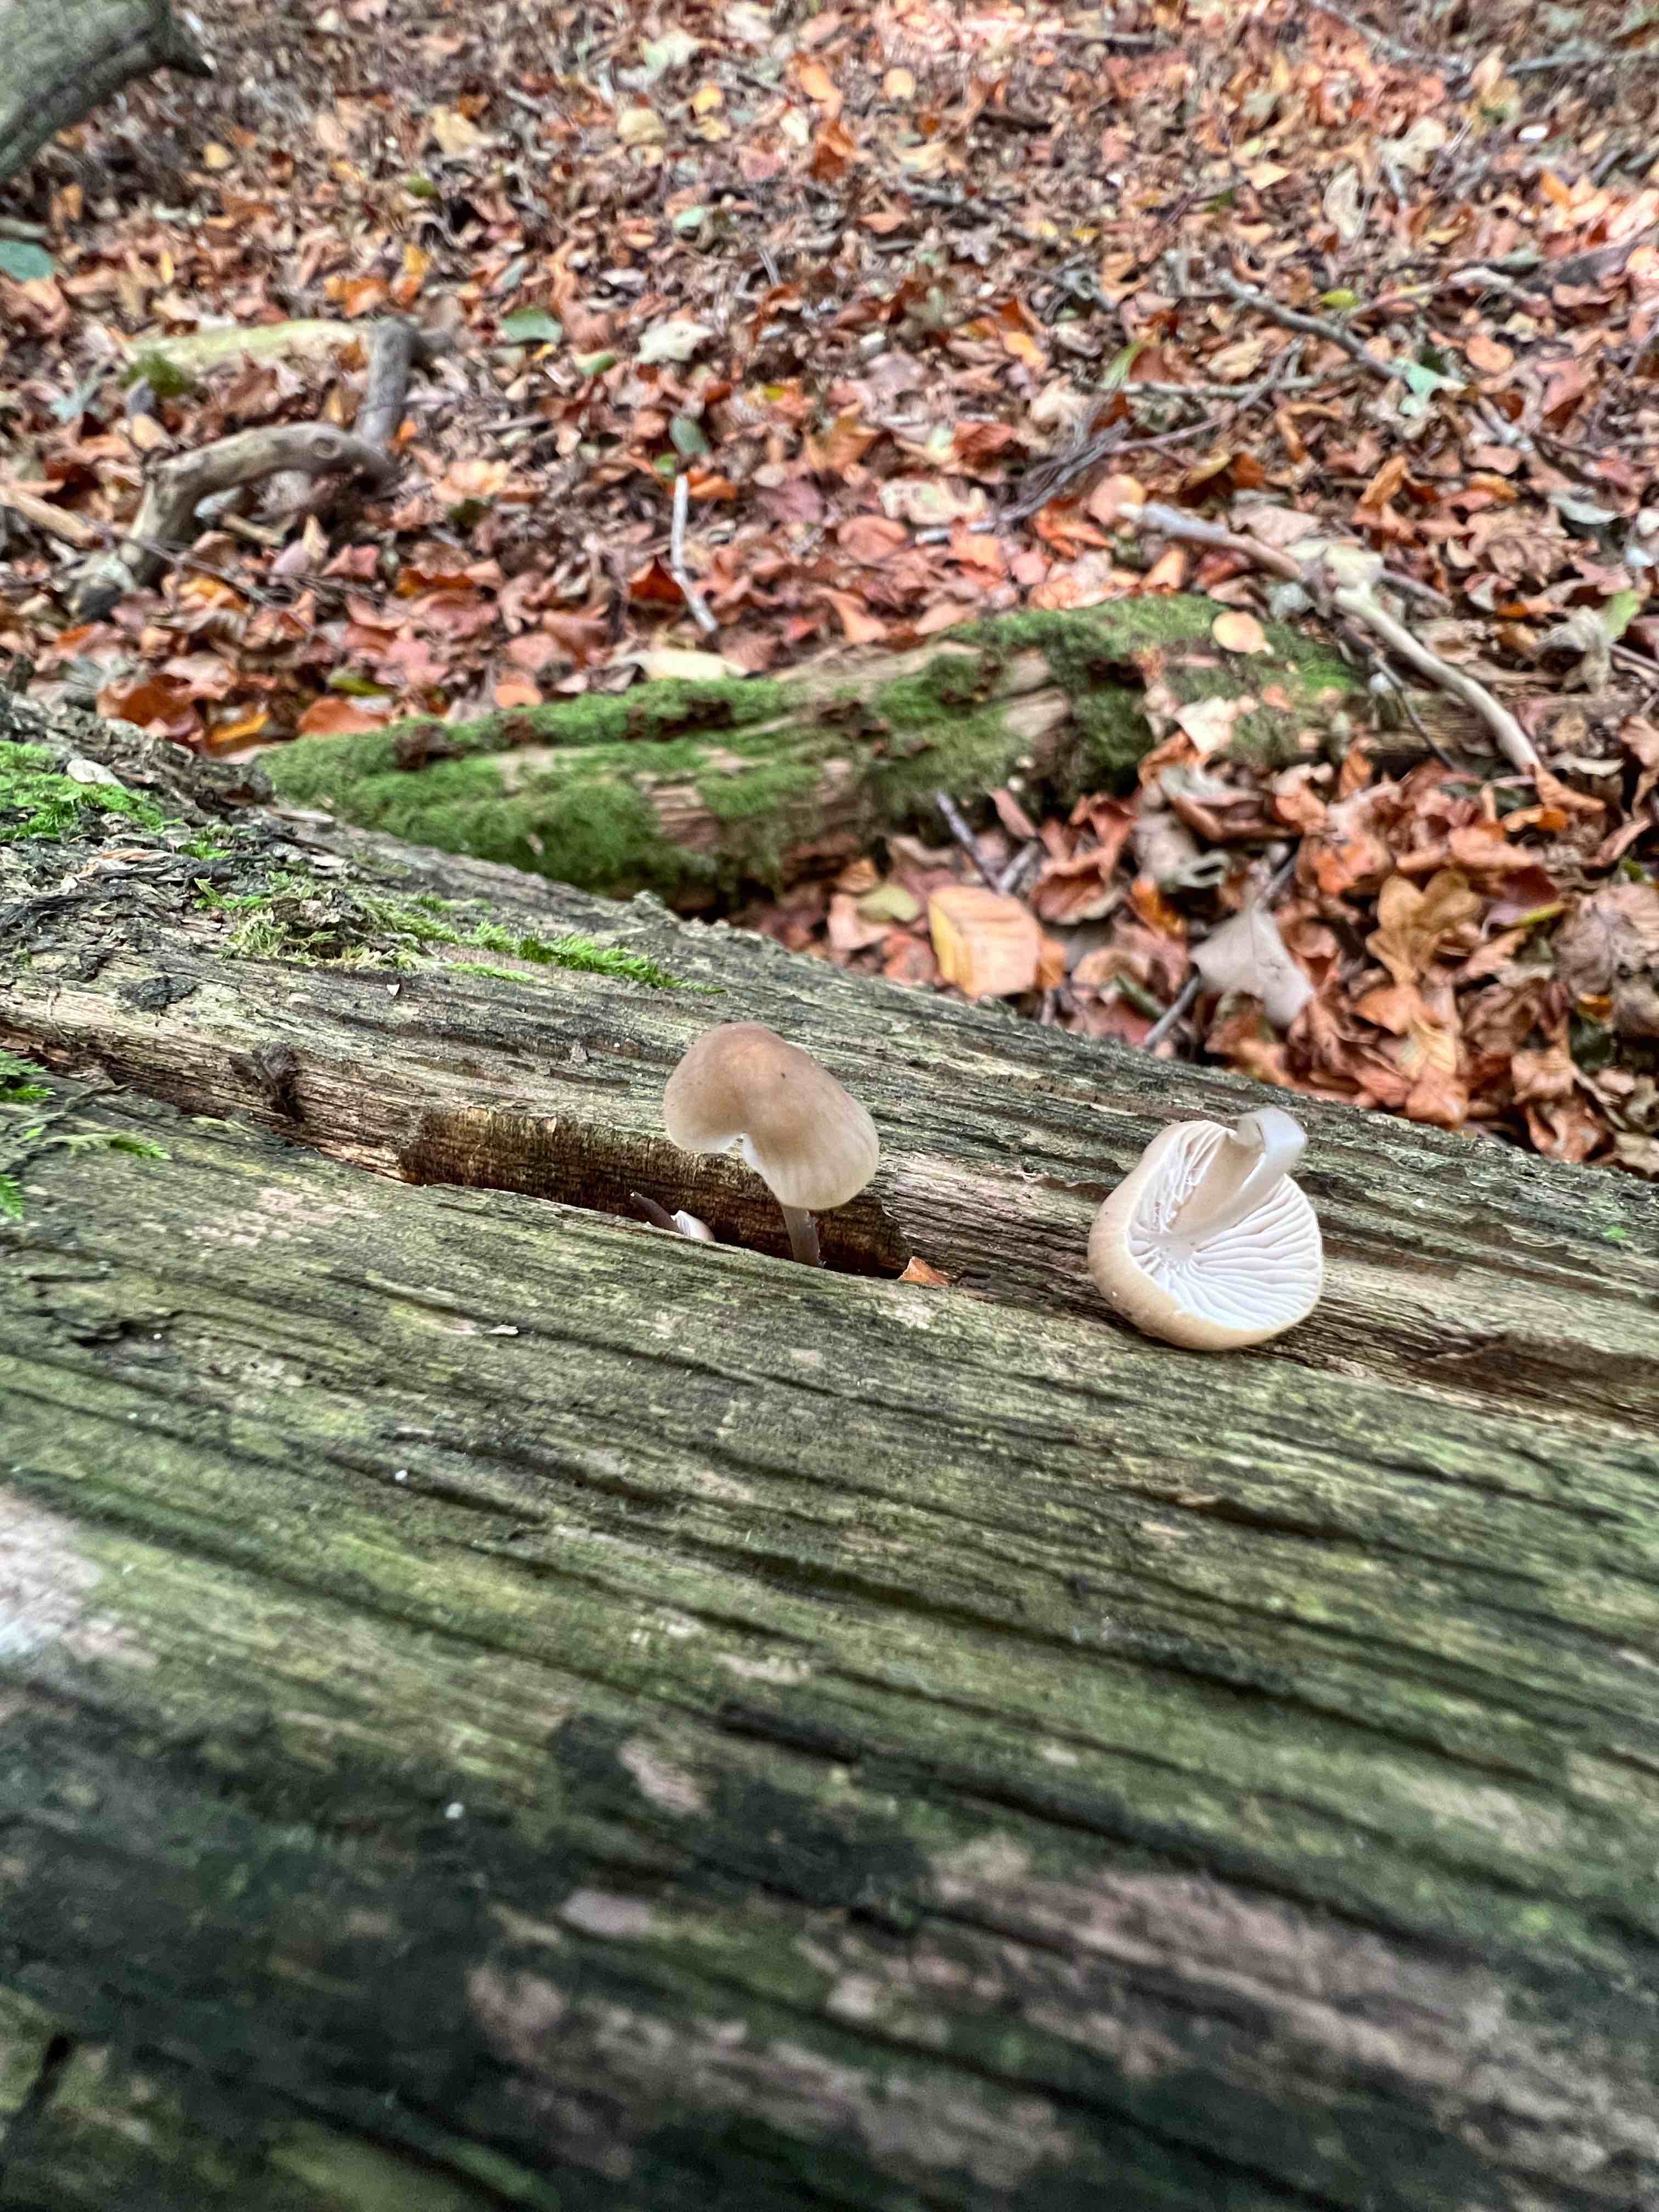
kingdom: Fungi
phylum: Basidiomycota
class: Agaricomycetes
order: Agaricales
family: Mycenaceae
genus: Mycena
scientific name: Mycena galericulata
